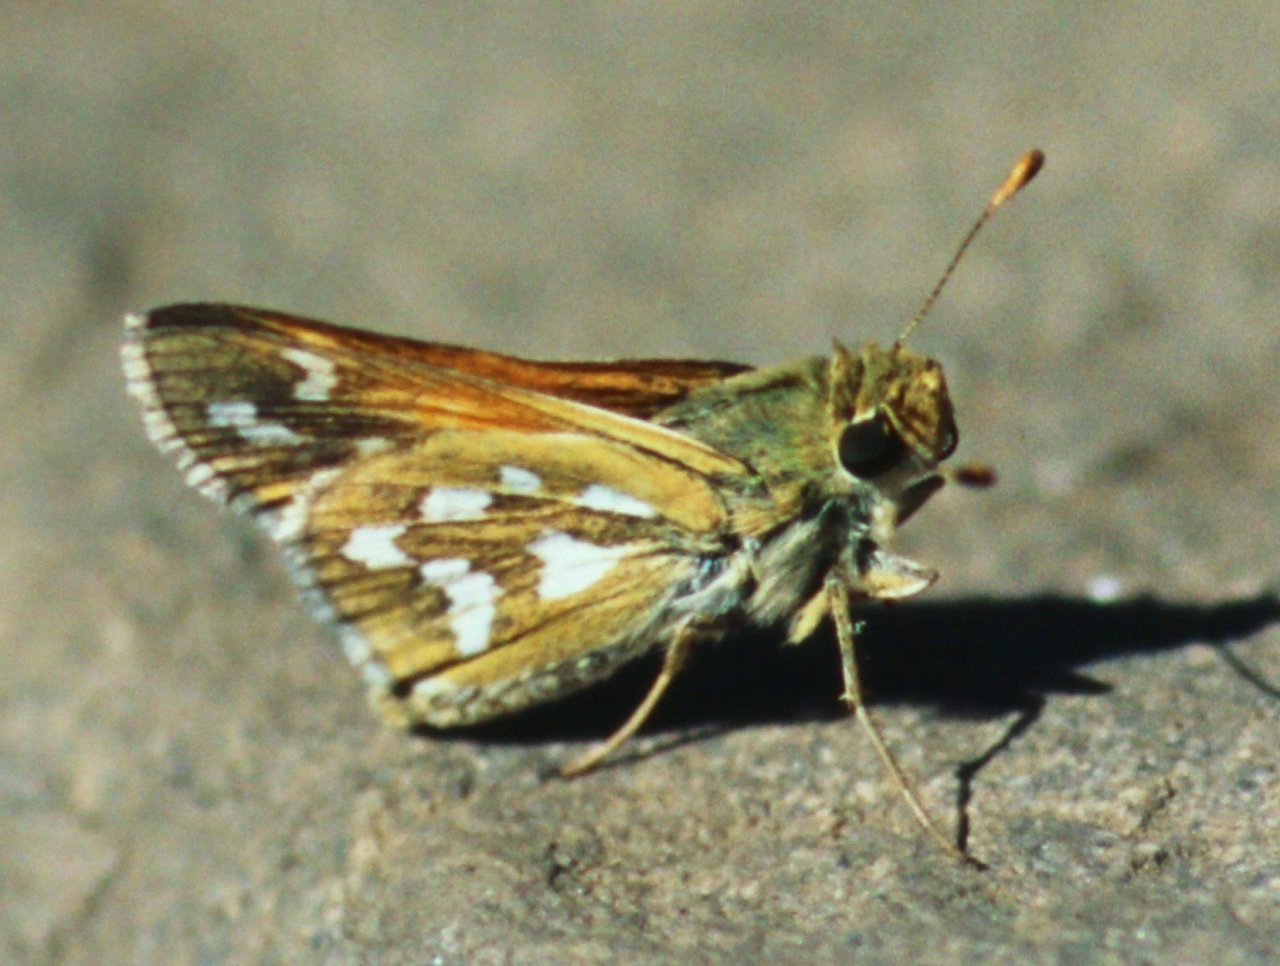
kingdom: Animalia
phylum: Arthropoda
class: Insecta
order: Lepidoptera
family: Hesperiidae
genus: Hesperia
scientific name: Hesperia viridis
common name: Green Skipper
